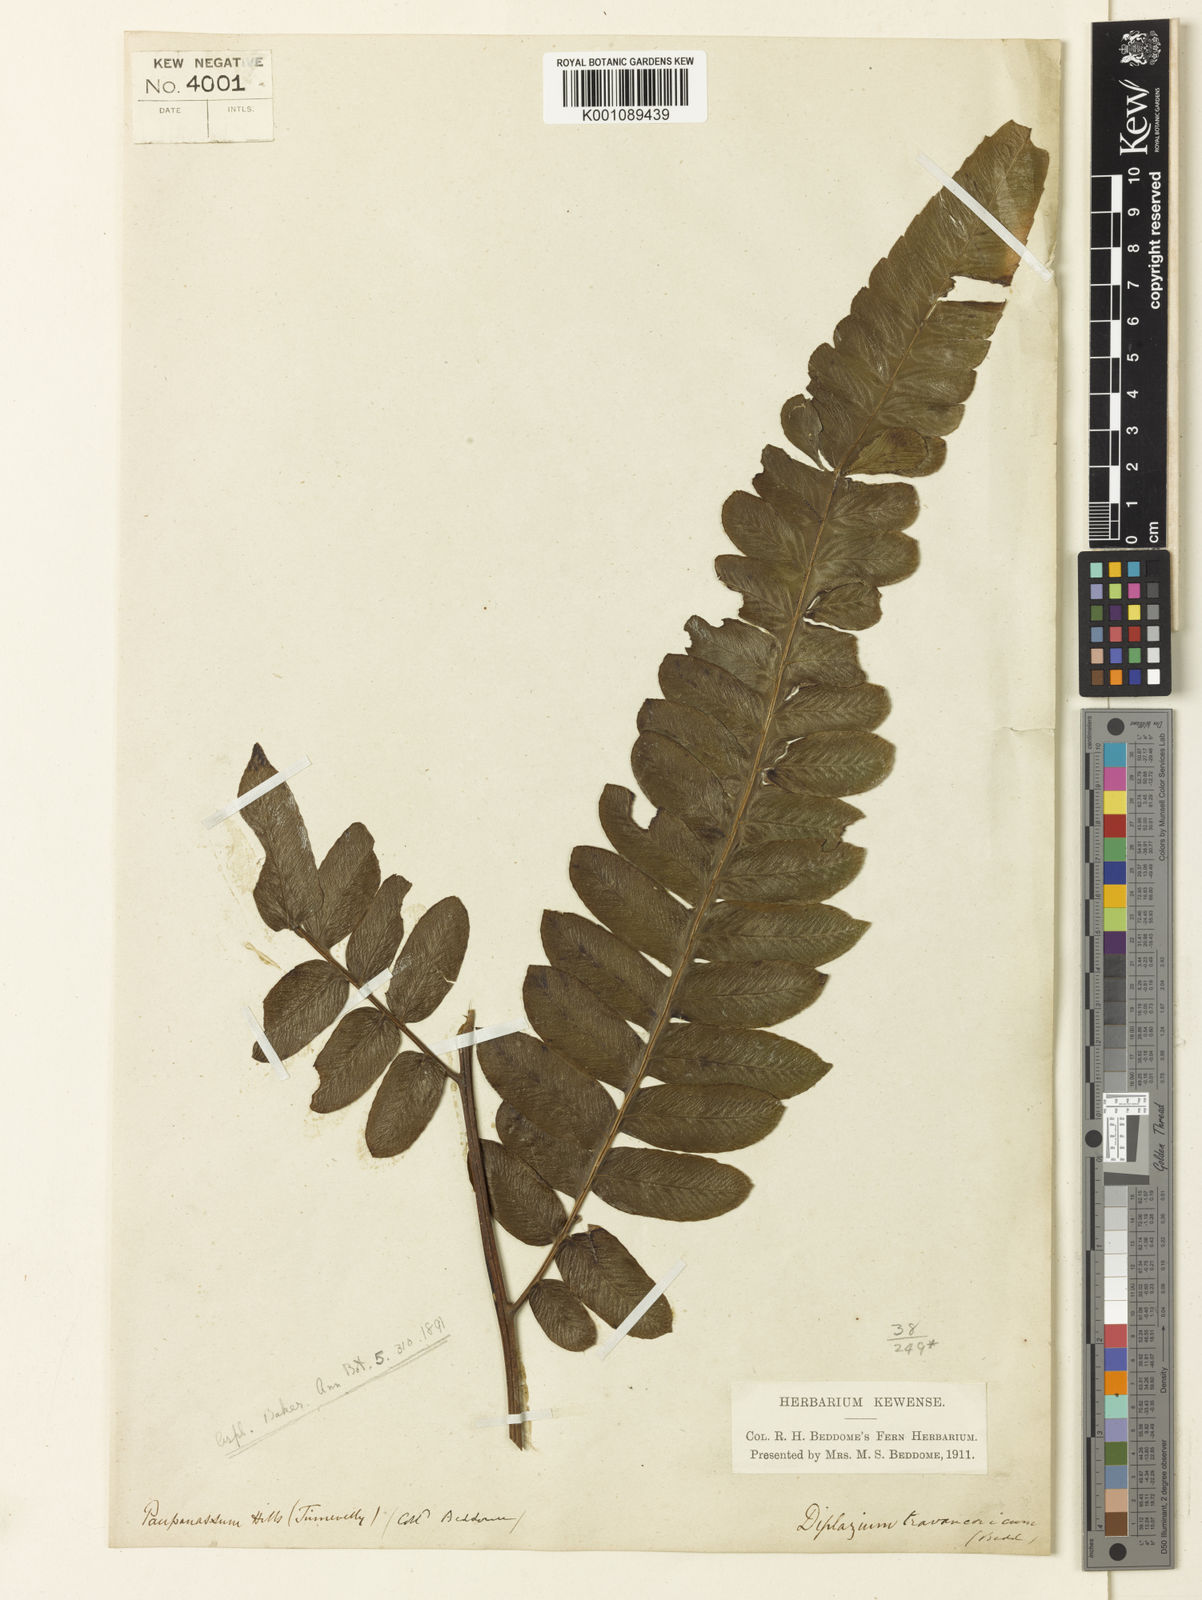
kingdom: Plantae
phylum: Tracheophyta
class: Polypodiopsida
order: Polypodiales
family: Athyriaceae
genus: Diplazium
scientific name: Diplazium travancoricum
